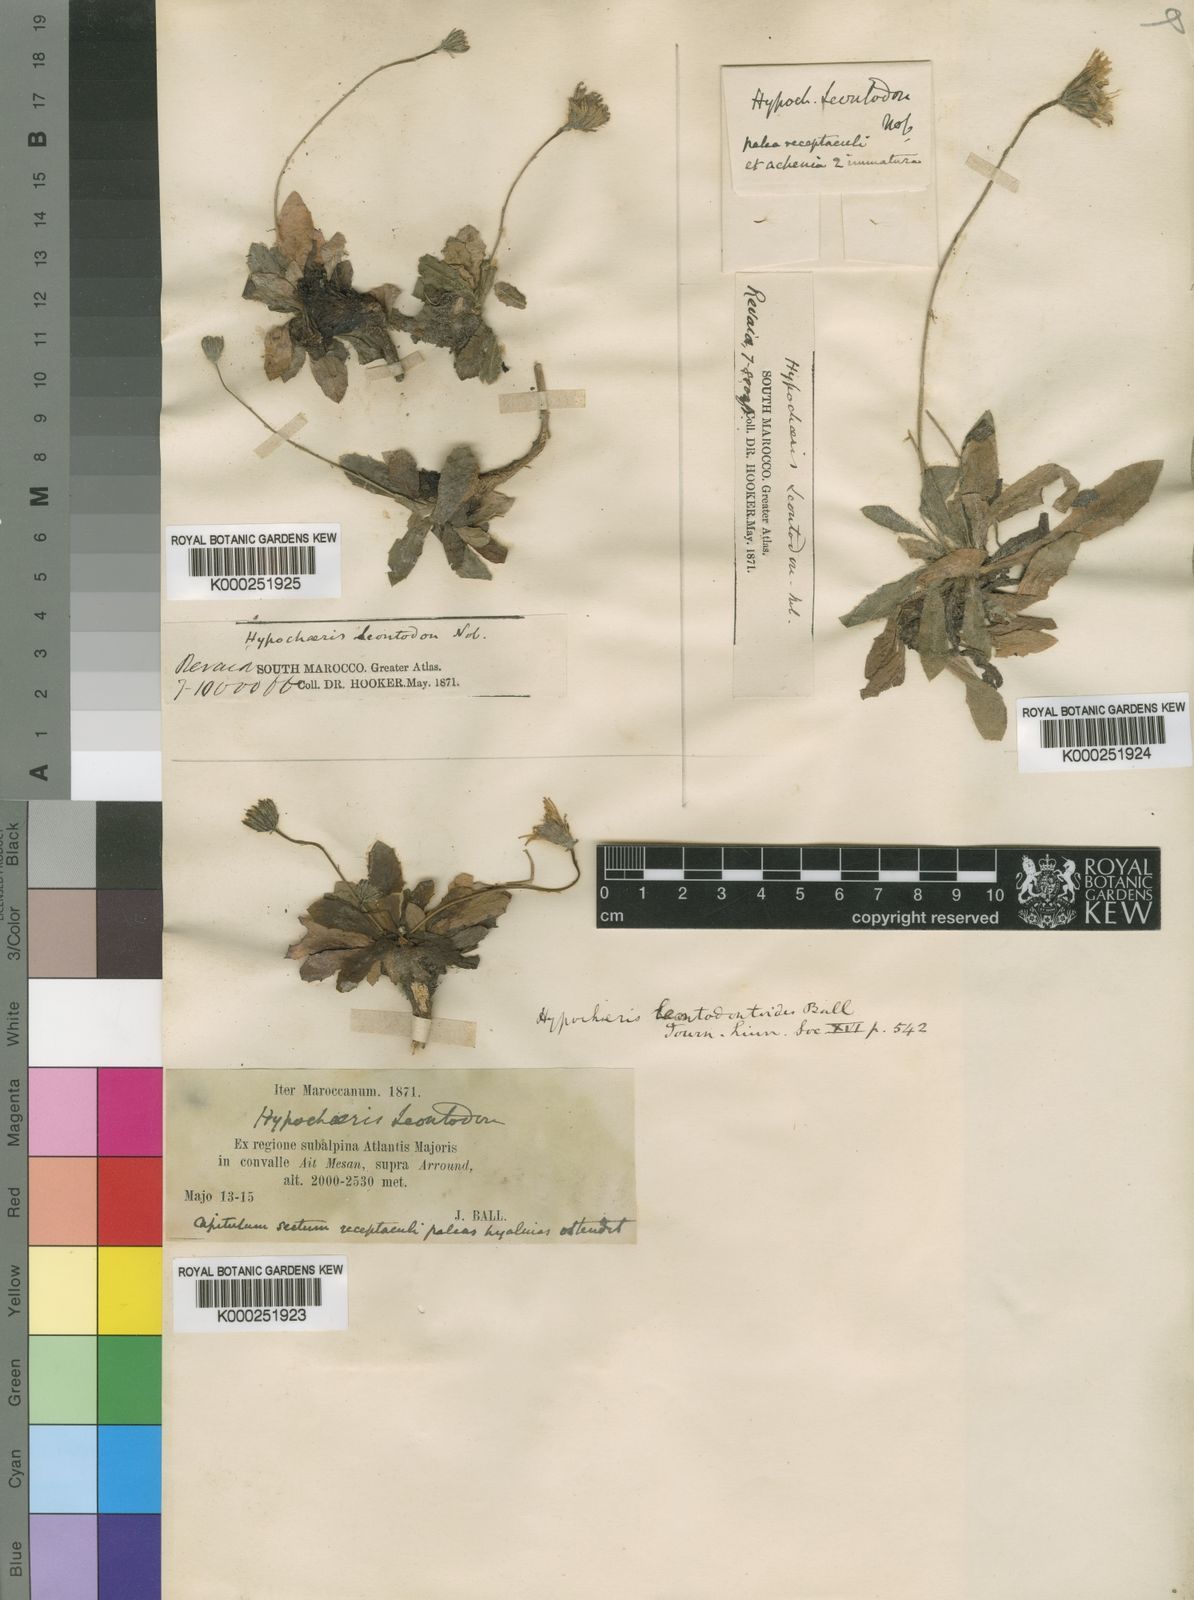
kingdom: Plantae
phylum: Tracheophyta
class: Magnoliopsida
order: Asterales
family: Asteraceae
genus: Achyrophorus
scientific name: Achyrophorus leontodontoides
